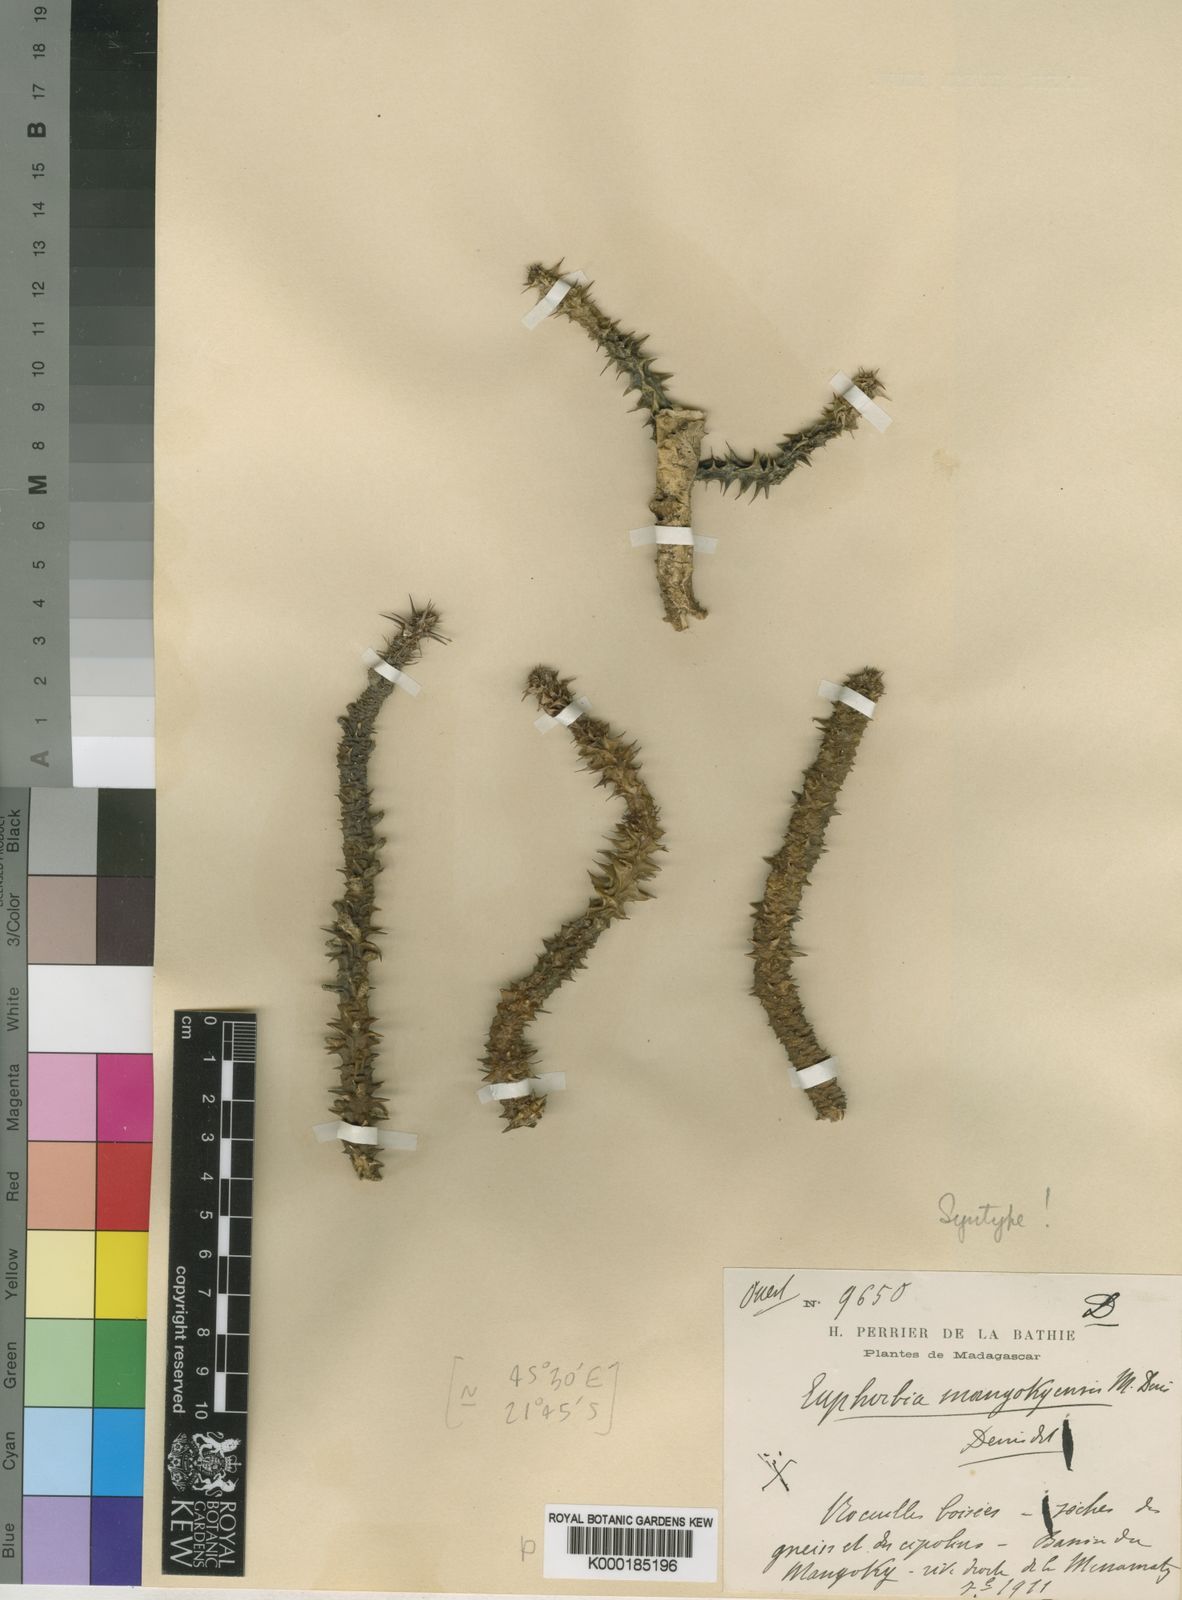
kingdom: Plantae
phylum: Tracheophyta
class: Magnoliopsida
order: Malpighiales
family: Euphorbiaceae
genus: Euphorbia
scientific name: Euphorbia mangokyensis
